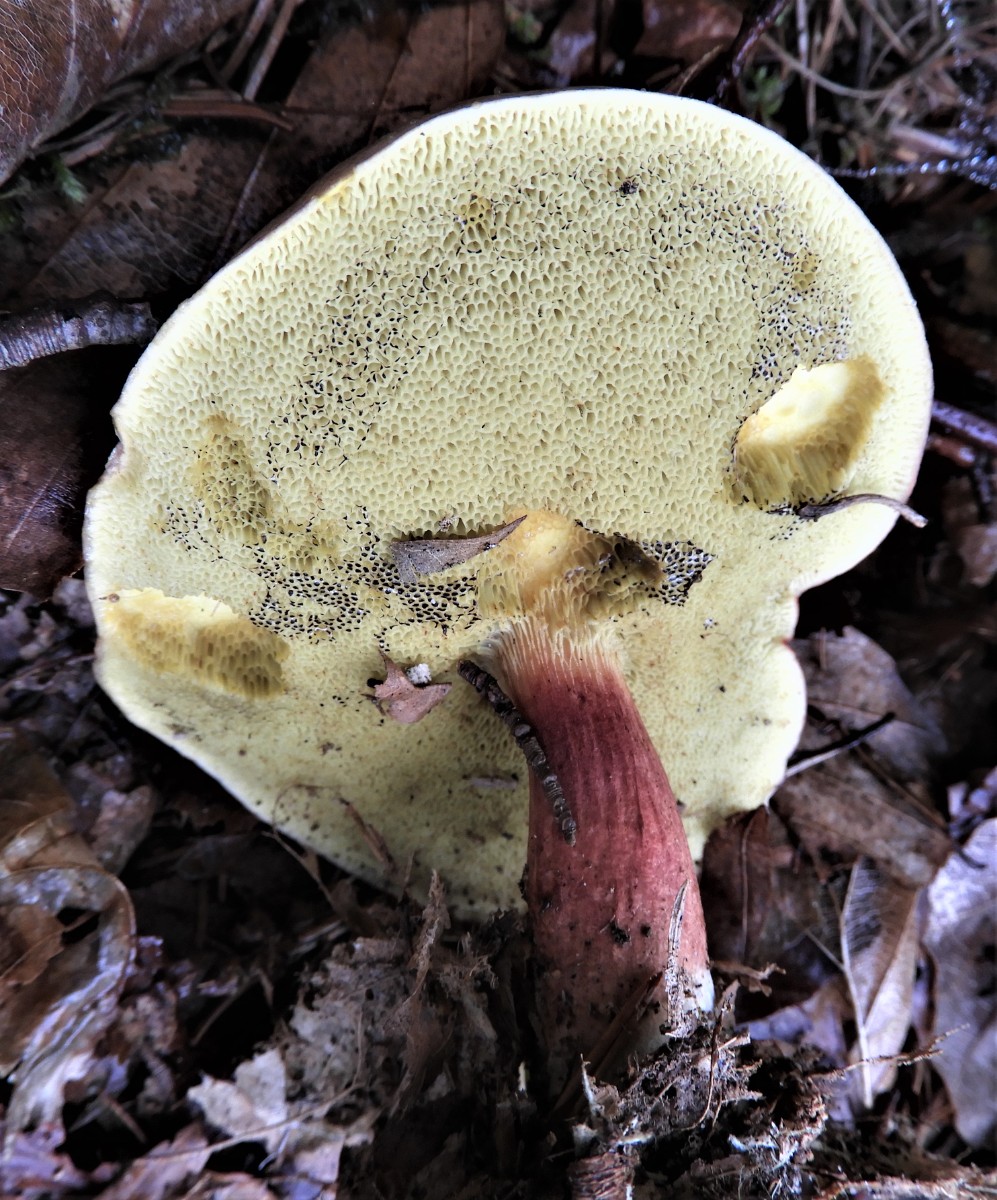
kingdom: Fungi
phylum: Basidiomycota
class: Agaricomycetes
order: Boletales
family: Boletaceae
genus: Xerocomellus
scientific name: Xerocomellus pruinatus
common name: dugget rørhat
